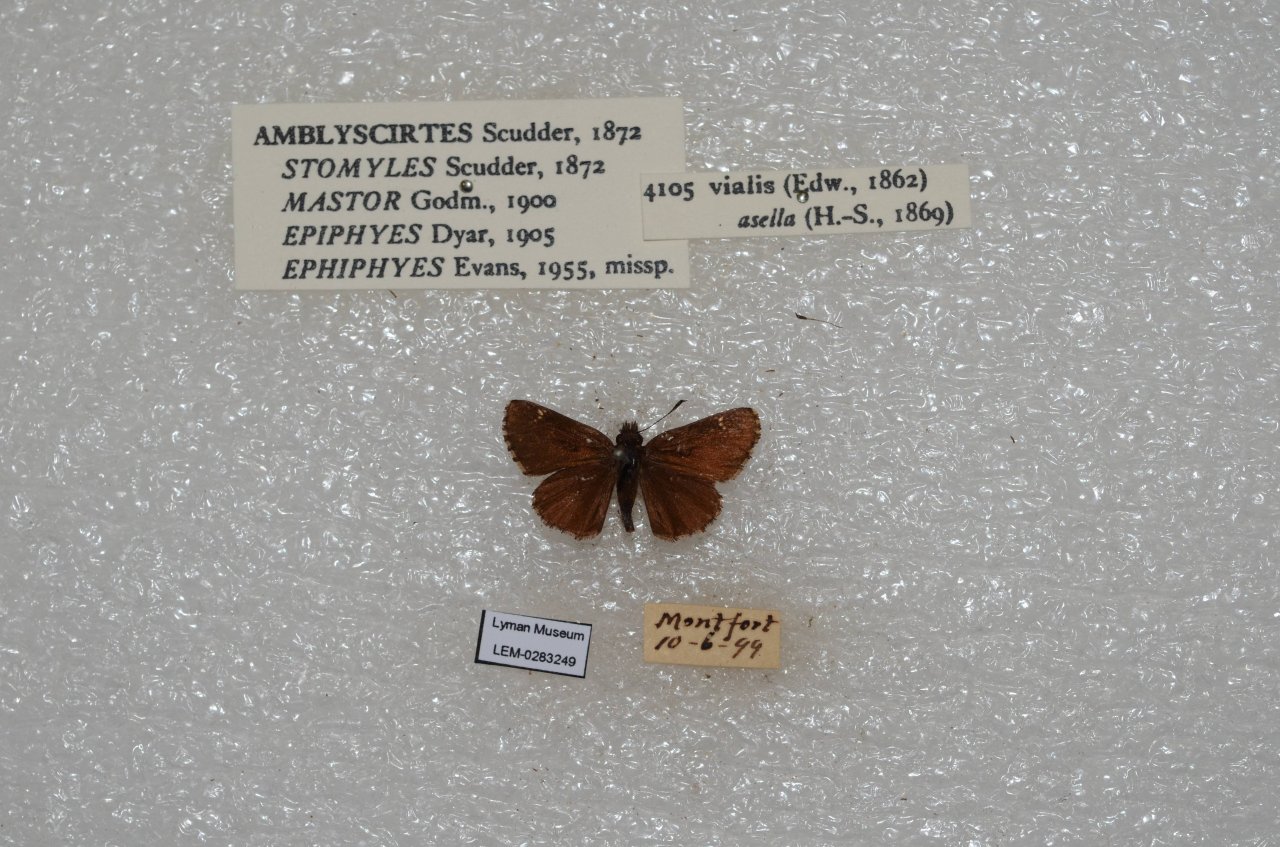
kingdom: Animalia
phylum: Arthropoda
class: Insecta
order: Lepidoptera
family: Hesperiidae
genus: Mastor
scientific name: Mastor vialis
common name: Common Roadside-Skipper
